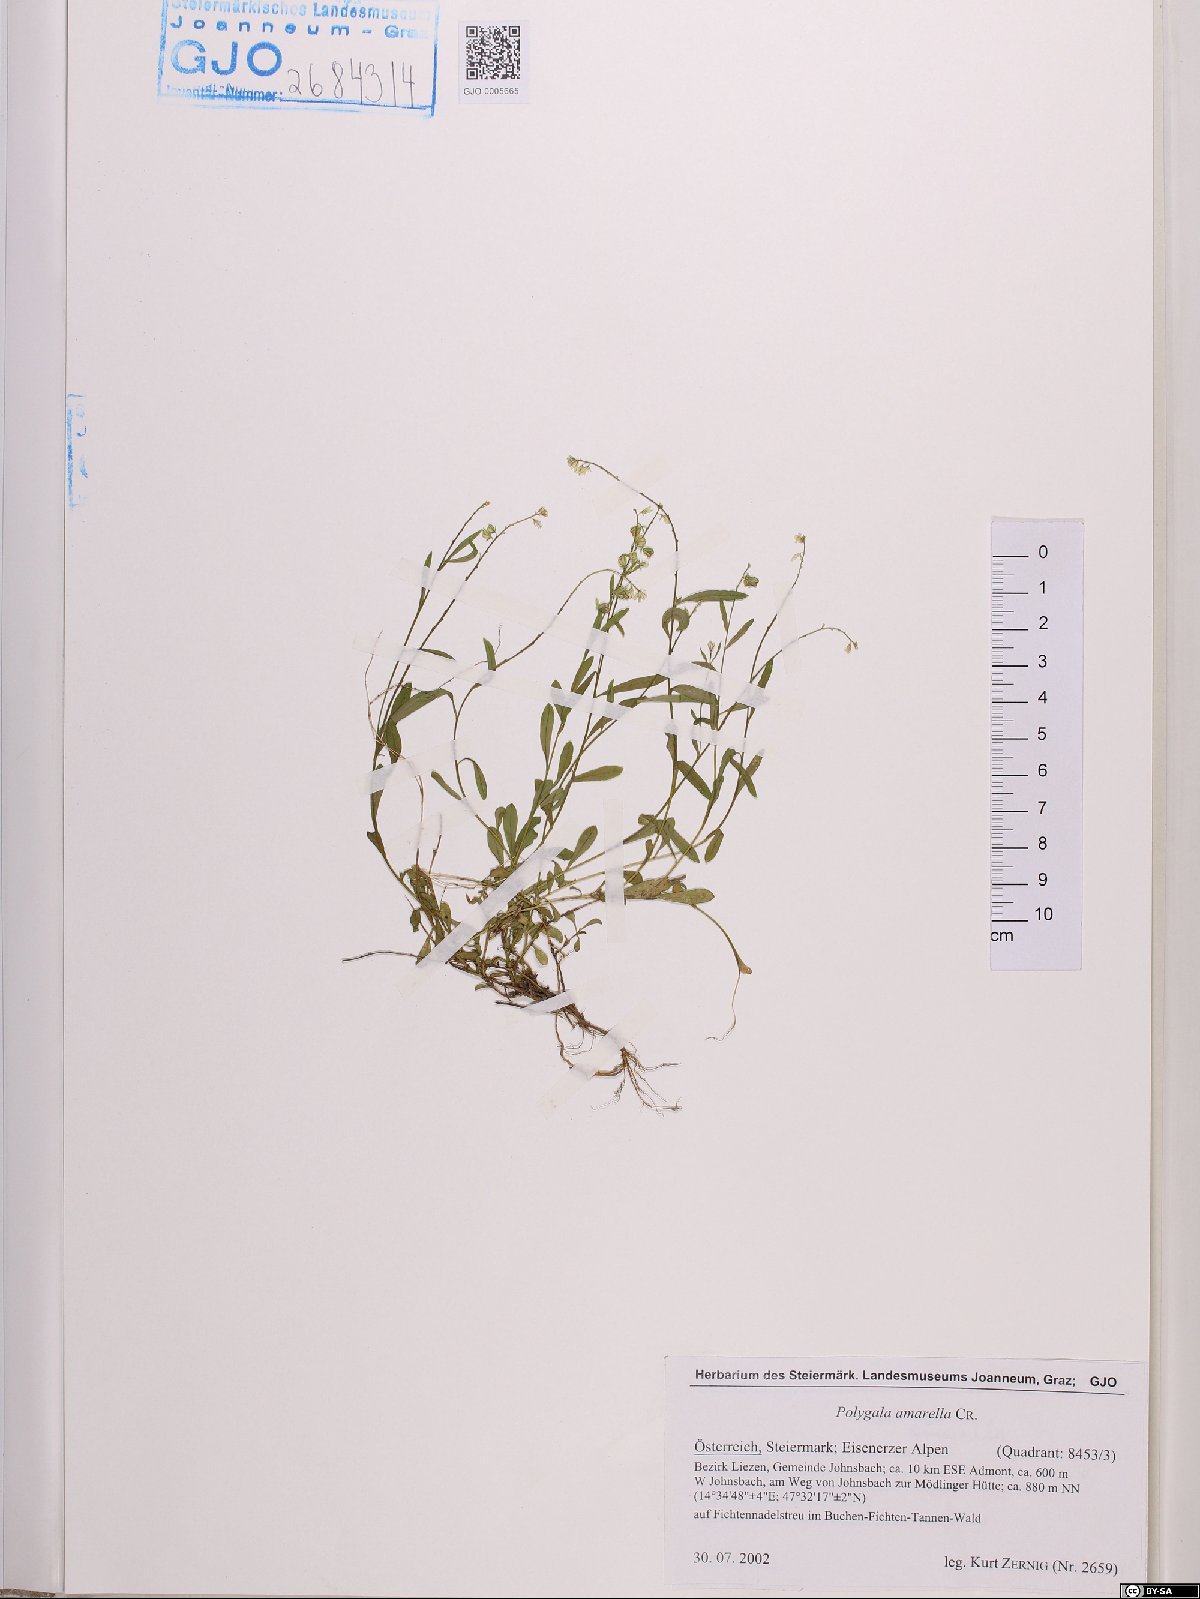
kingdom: Plantae
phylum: Tracheophyta
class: Magnoliopsida
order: Fabales
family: Polygalaceae
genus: Polygala
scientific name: Polygala amarella
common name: Dwarf milkwort
